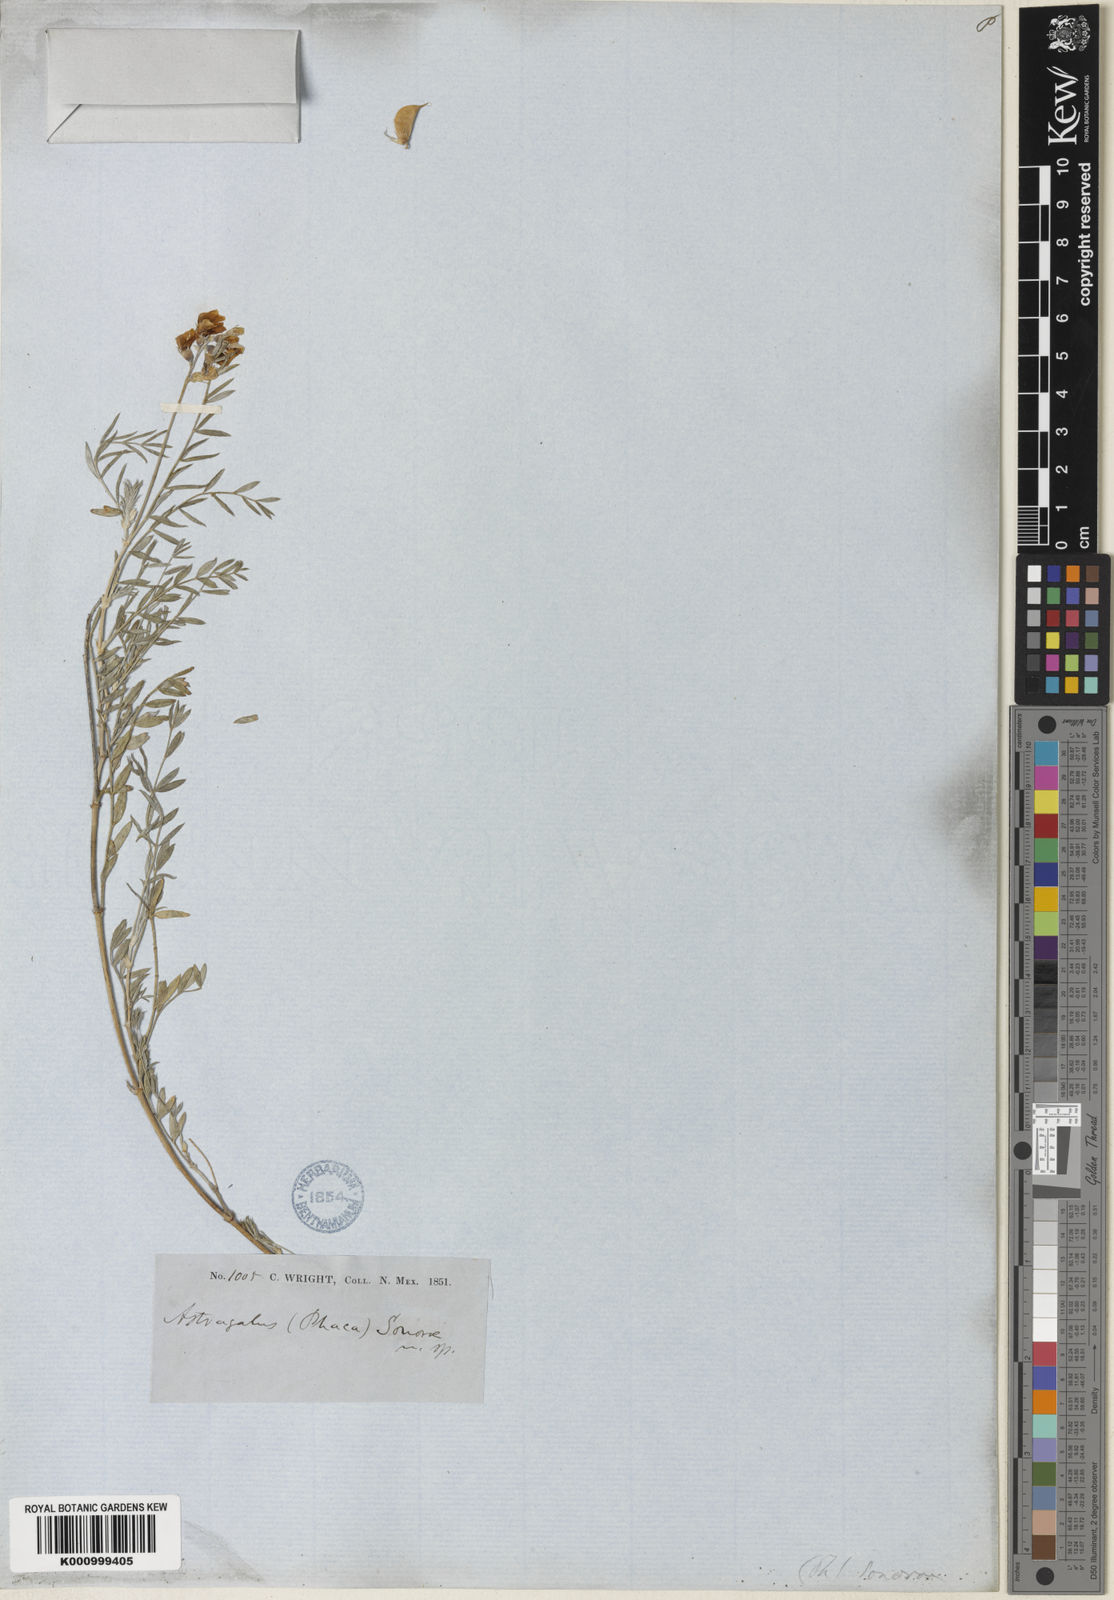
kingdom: Plantae
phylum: Tracheophyta
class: Magnoliopsida
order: Fabales
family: Fabaceae
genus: Astragalus
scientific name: Astragalus humistratus
